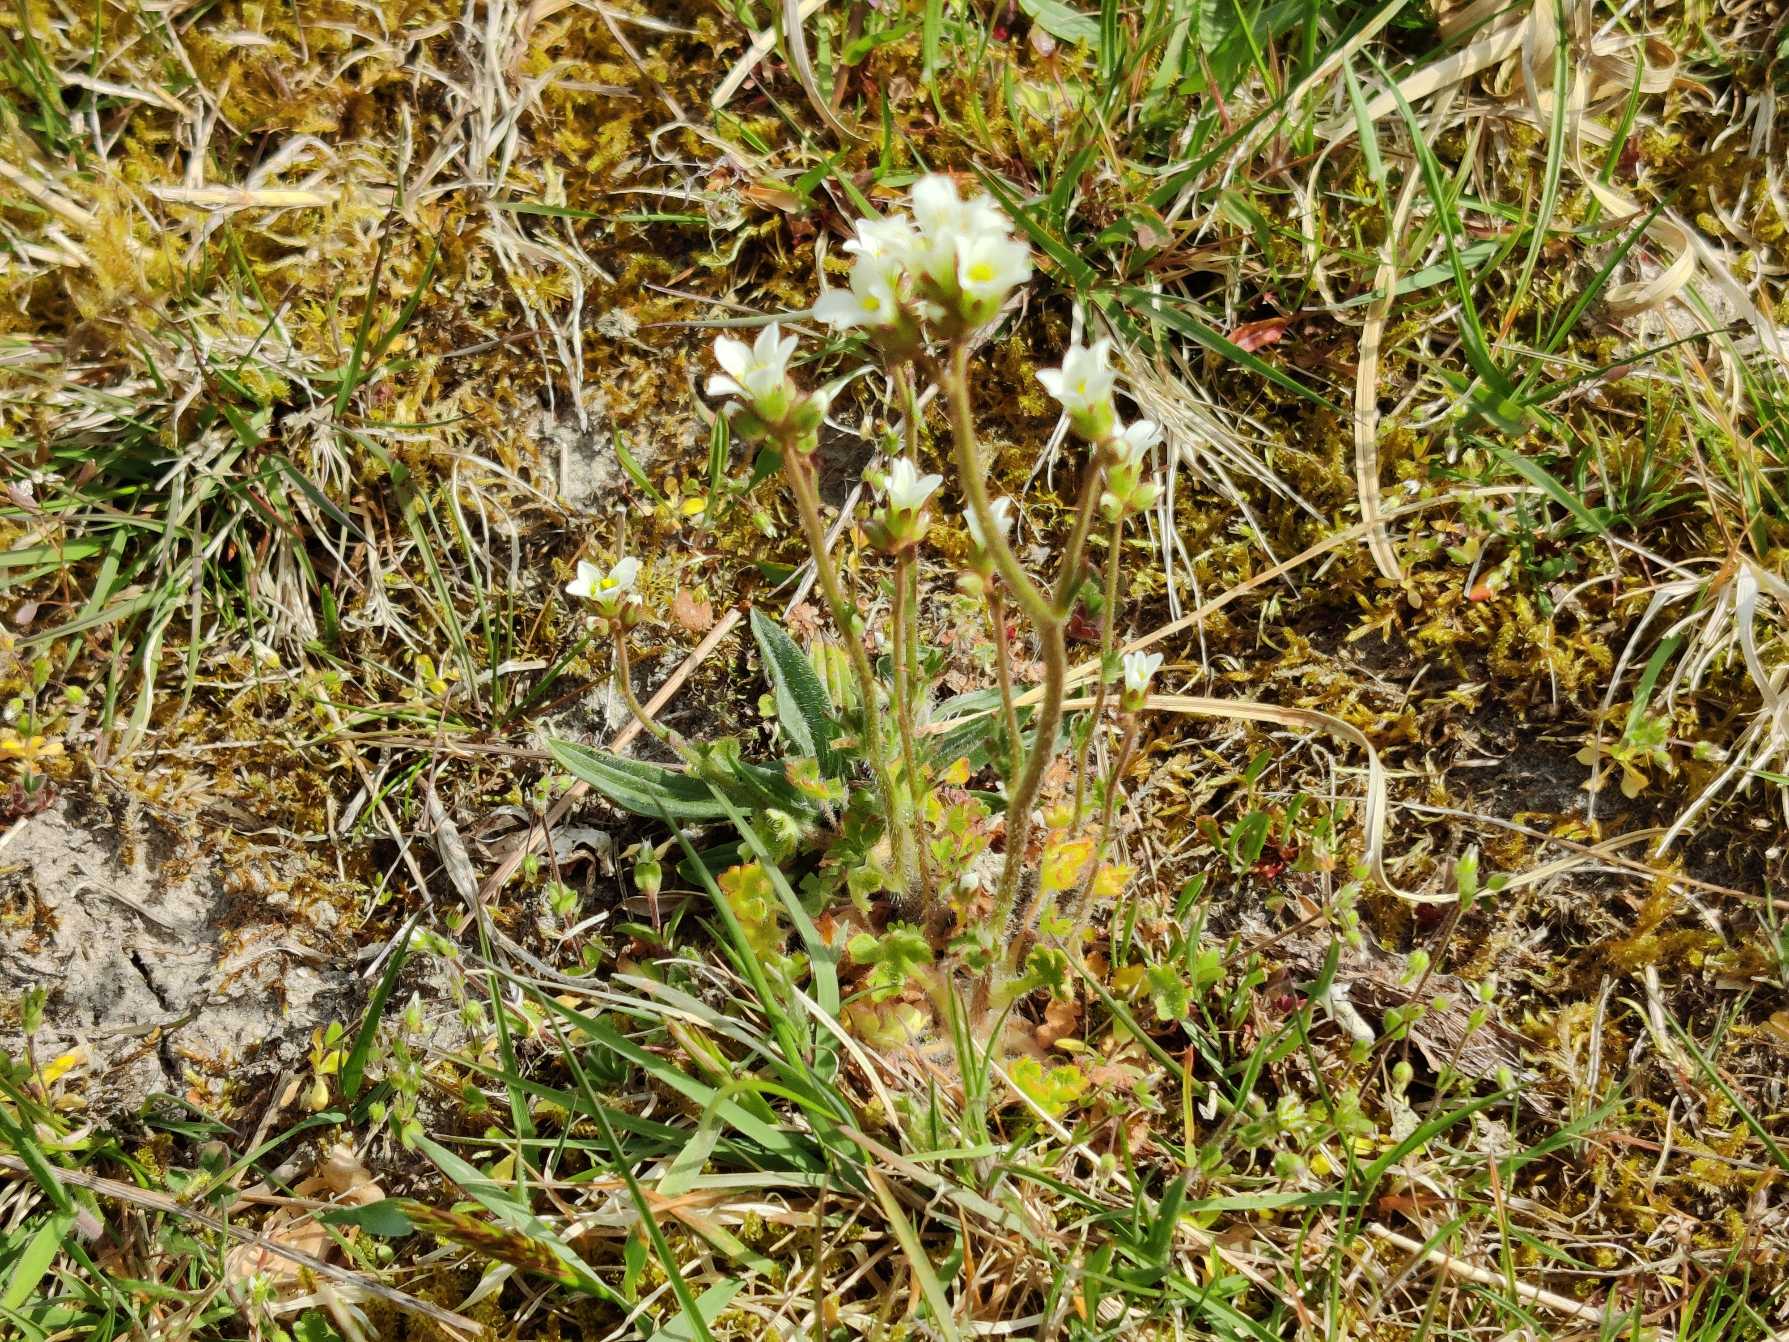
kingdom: Plantae
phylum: Tracheophyta
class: Magnoliopsida
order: Saxifragales
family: Saxifragaceae
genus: Saxifraga
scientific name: Saxifraga granulata
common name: Kornet stenbræk
